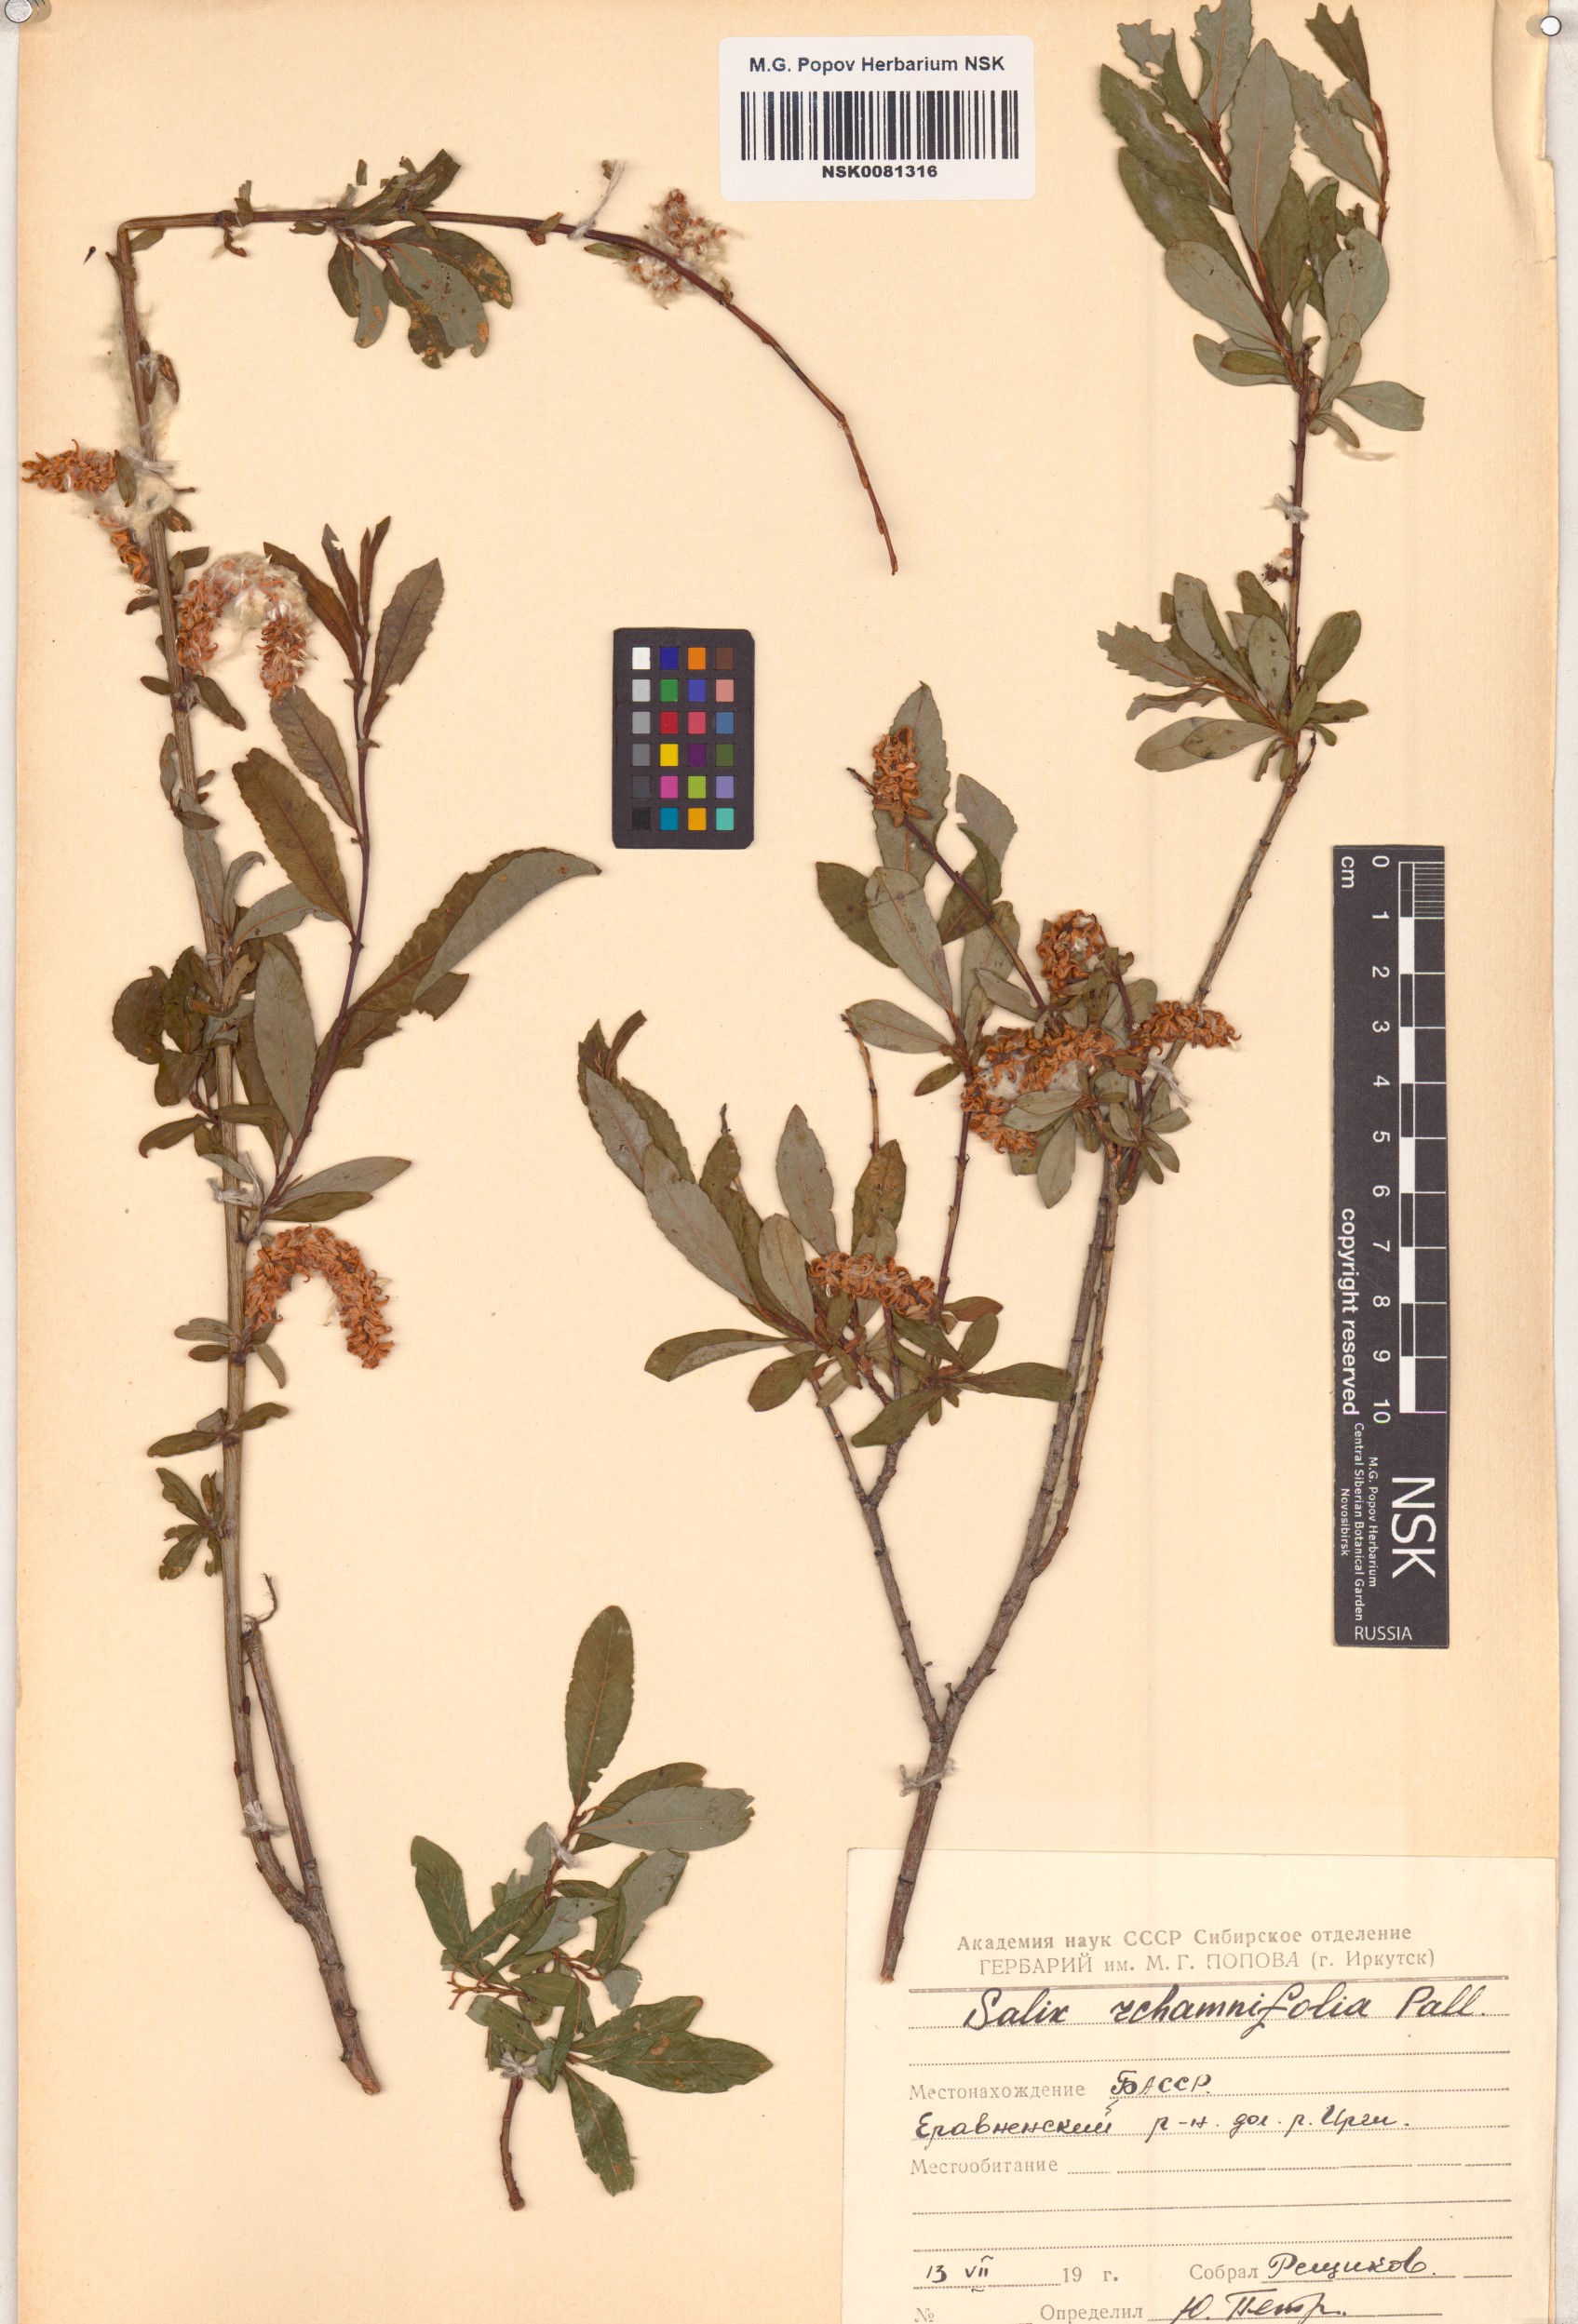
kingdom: Plantae
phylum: Tracheophyta
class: Magnoliopsida
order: Malpighiales
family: Salicaceae
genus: Salix
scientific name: Salix rhamnifolia
